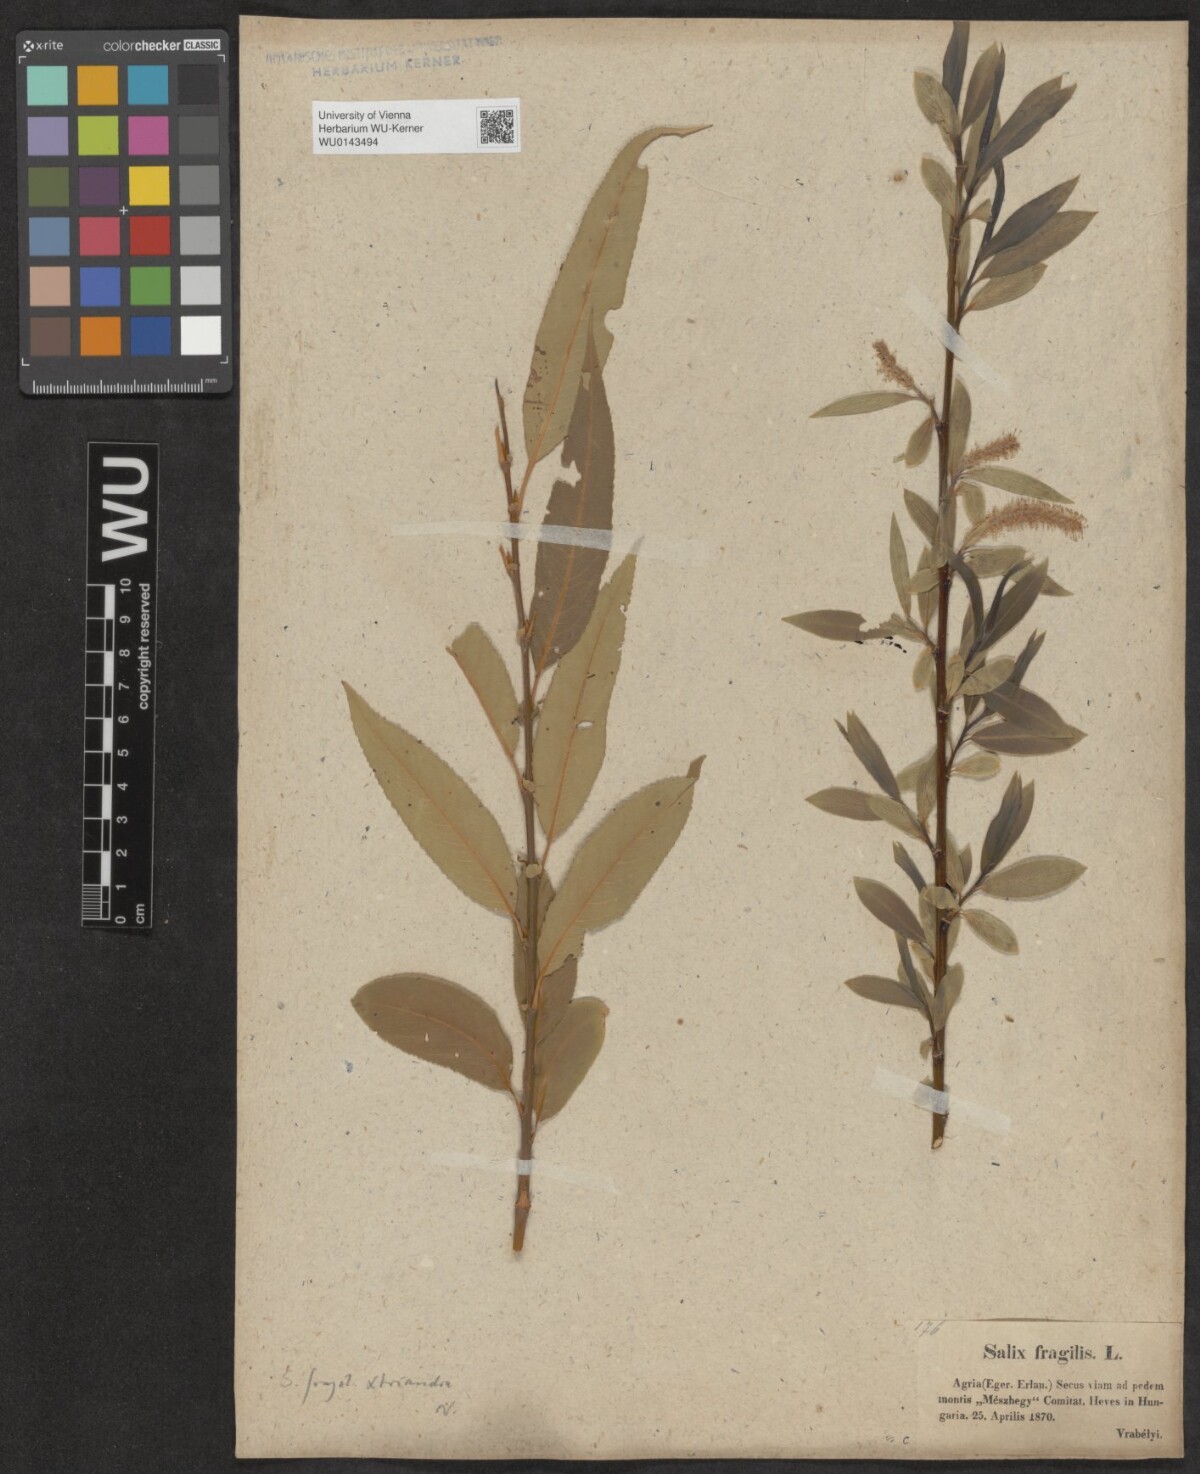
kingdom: Plantae
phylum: Tracheophyta
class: Magnoliopsida
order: Malpighiales
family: Salicaceae
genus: Salix
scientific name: Salix triandra
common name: Almond willow
